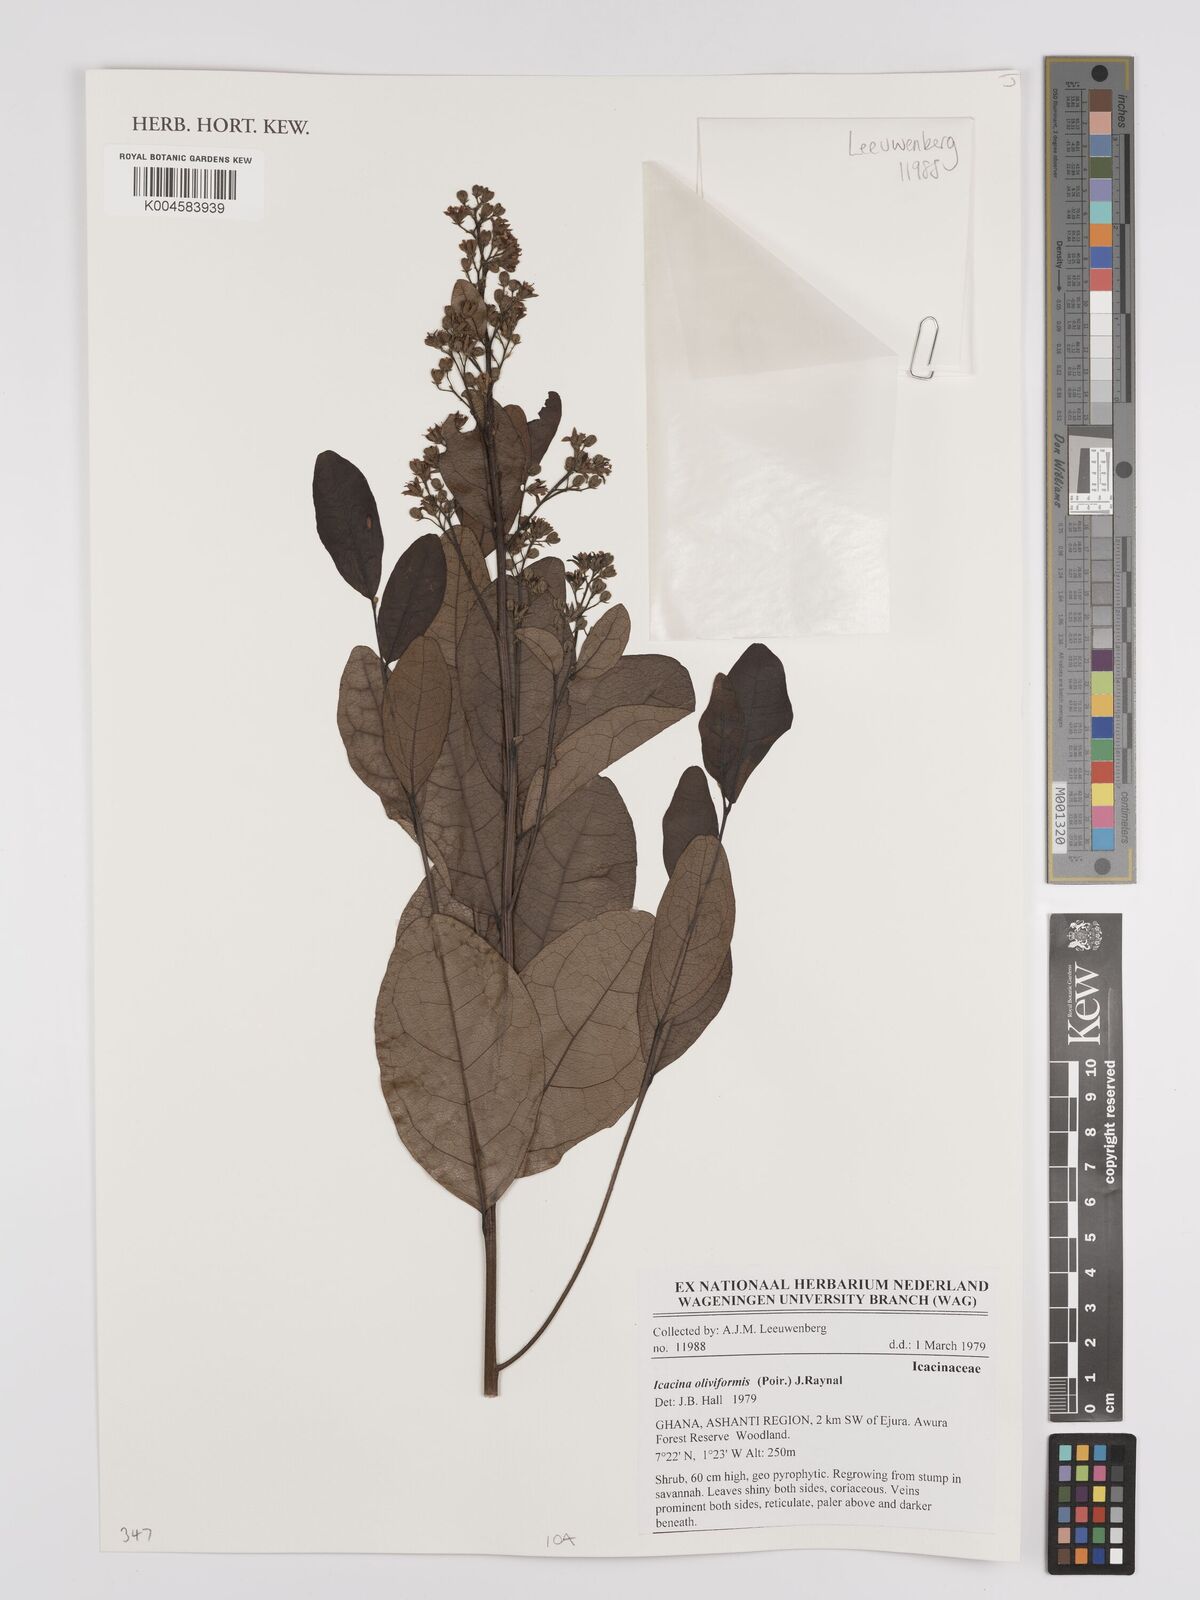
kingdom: Plantae
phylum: Tracheophyta
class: Magnoliopsida
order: Icacinales
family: Icacinaceae
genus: Icacina
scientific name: Icacina oliviformis
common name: False yam
